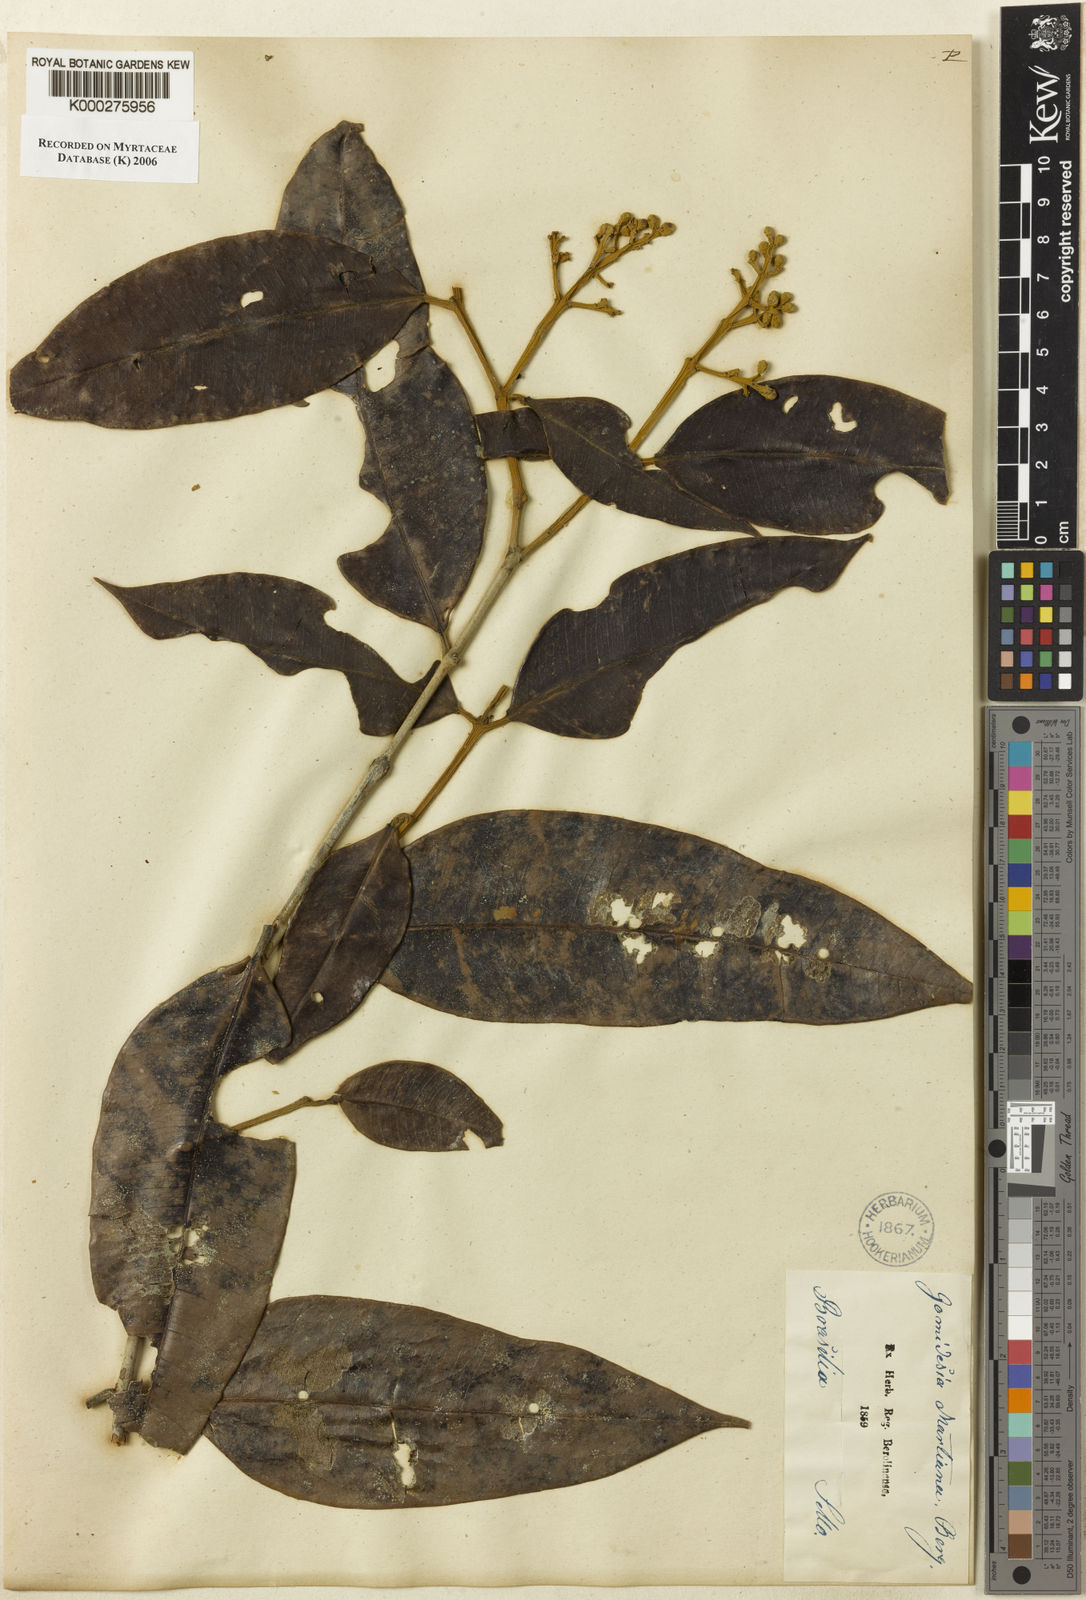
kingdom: Plantae
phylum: Tracheophyta
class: Magnoliopsida
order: Myrtales
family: Myrtaceae
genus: Myrcia
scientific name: Myrcia vittoriana
